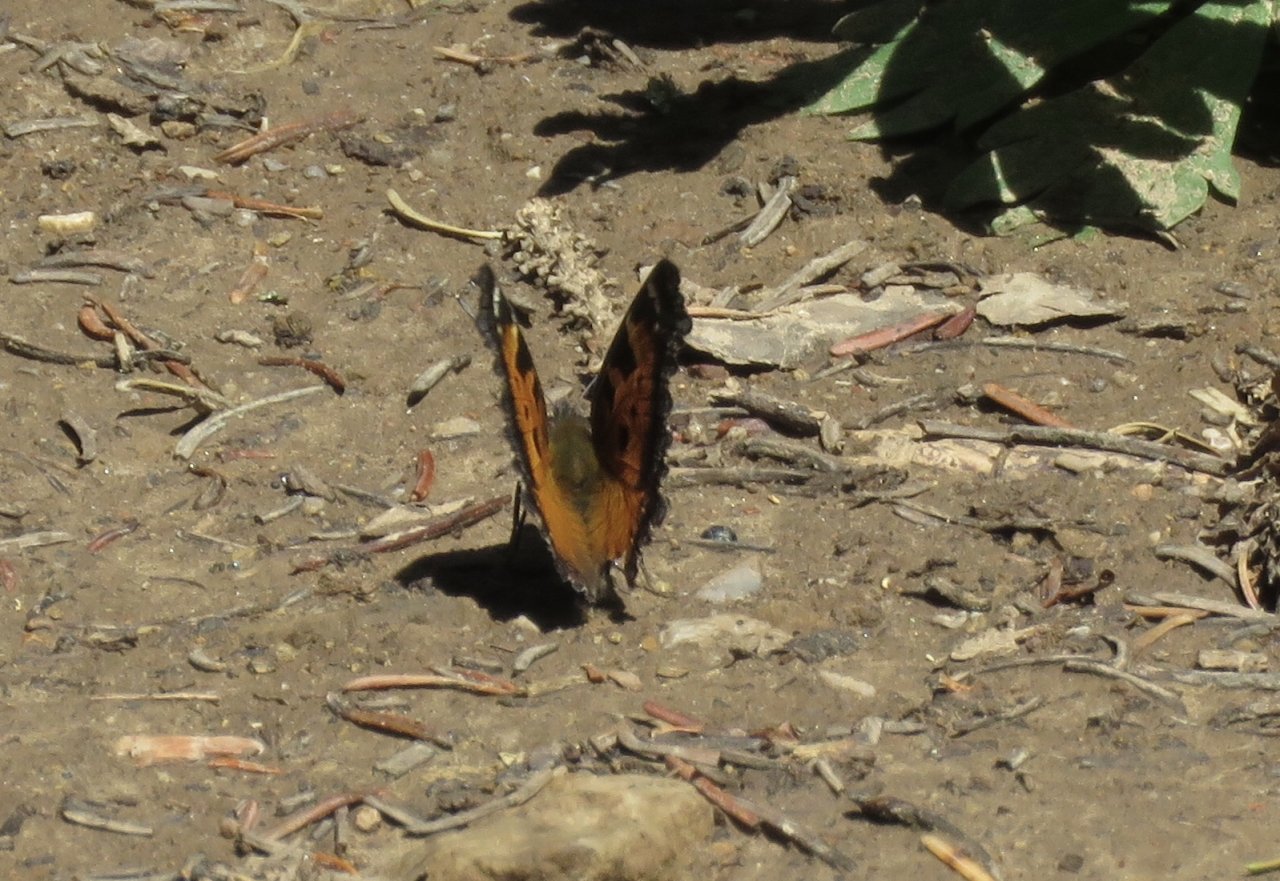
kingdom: Animalia
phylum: Arthropoda
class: Insecta
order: Lepidoptera
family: Nymphalidae
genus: Nymphalis
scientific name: Nymphalis californica
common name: California Tortoiseshell
